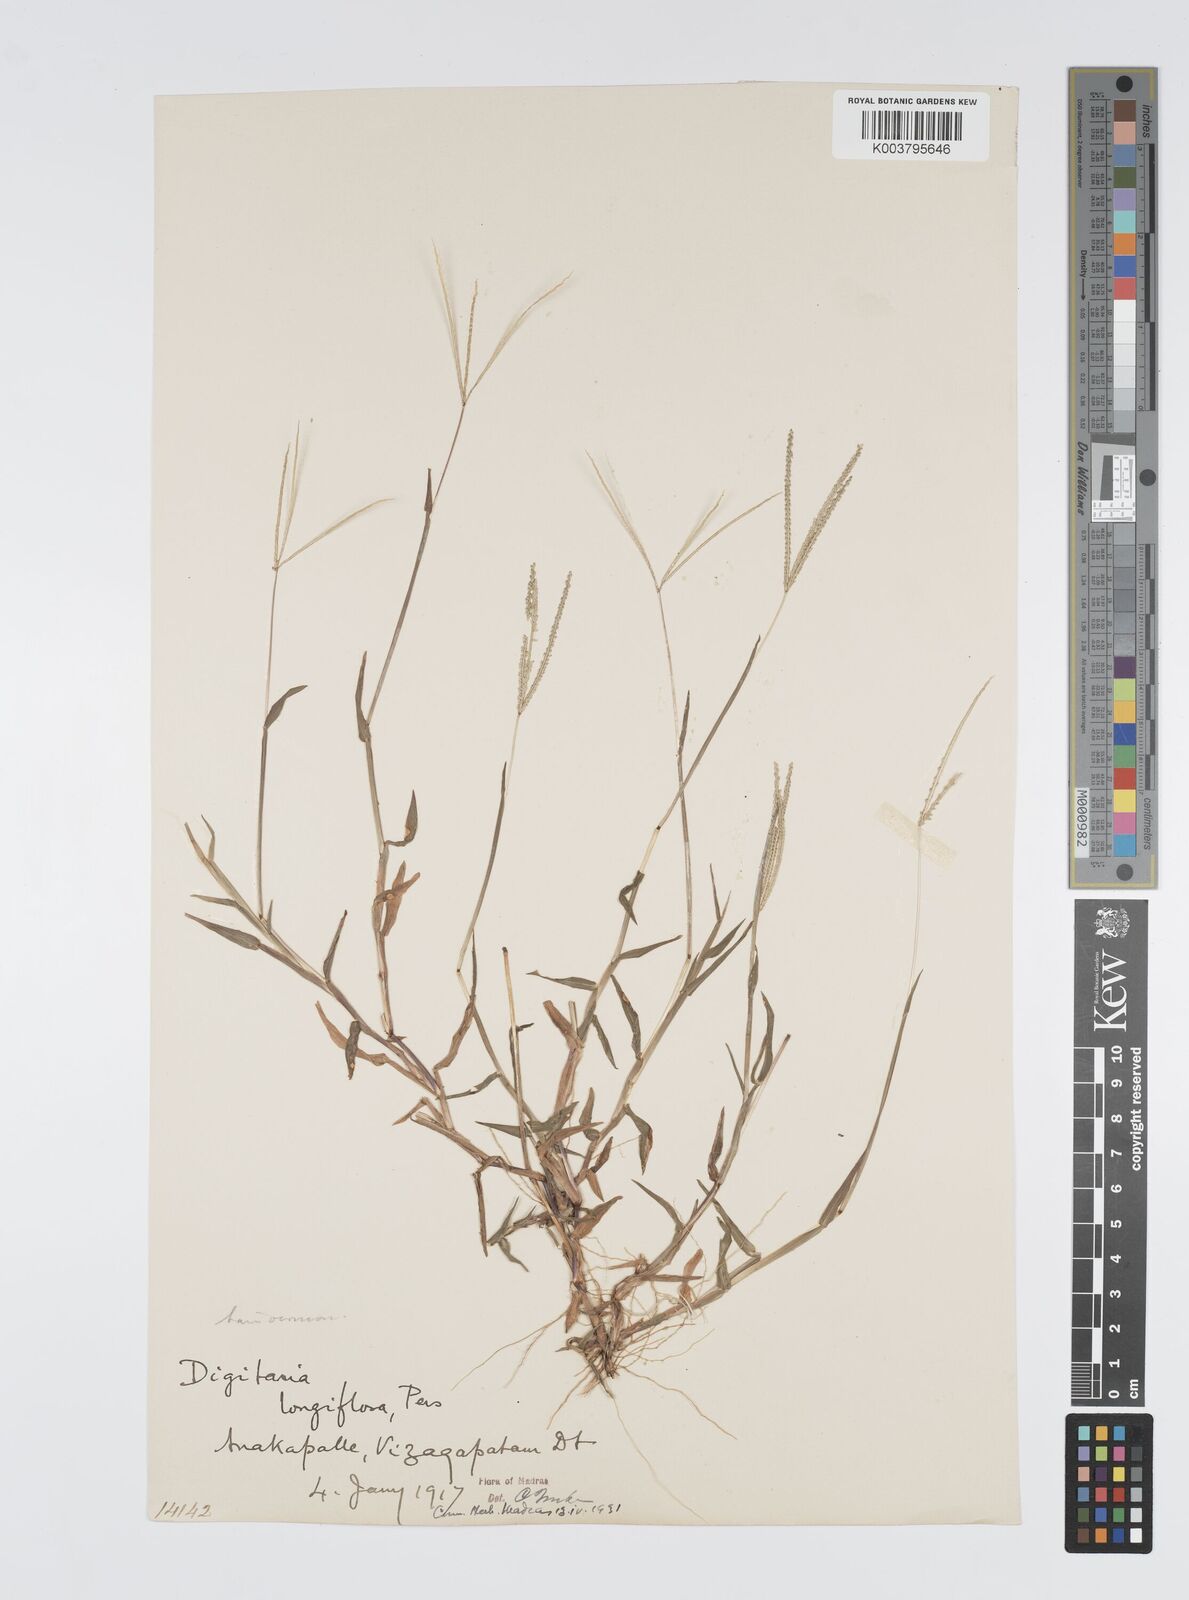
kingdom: Plantae
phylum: Tracheophyta
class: Liliopsida
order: Poales
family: Poaceae
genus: Digitaria
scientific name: Digitaria longiflora
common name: Wire crabgrass
